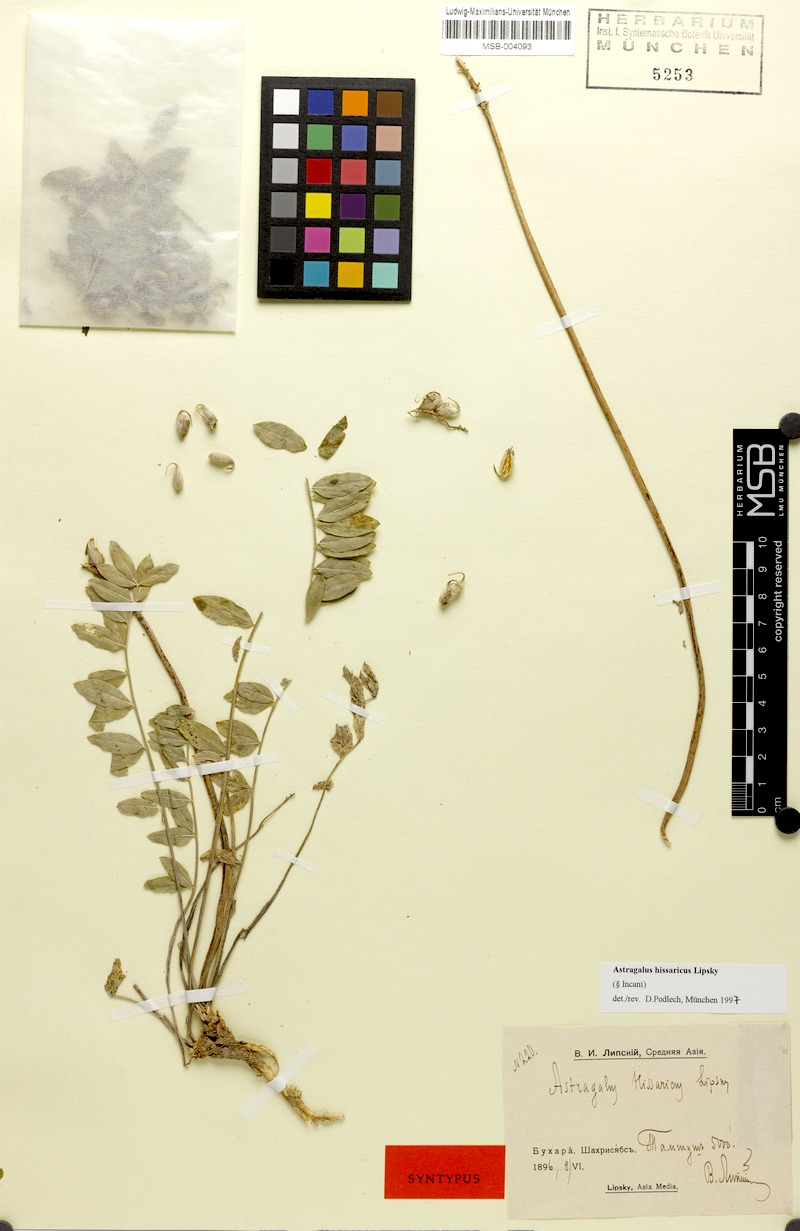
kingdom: Plantae
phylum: Tracheophyta
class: Magnoliopsida
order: Fabales
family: Fabaceae
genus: Astragalus
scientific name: Astragalus hissaricus
